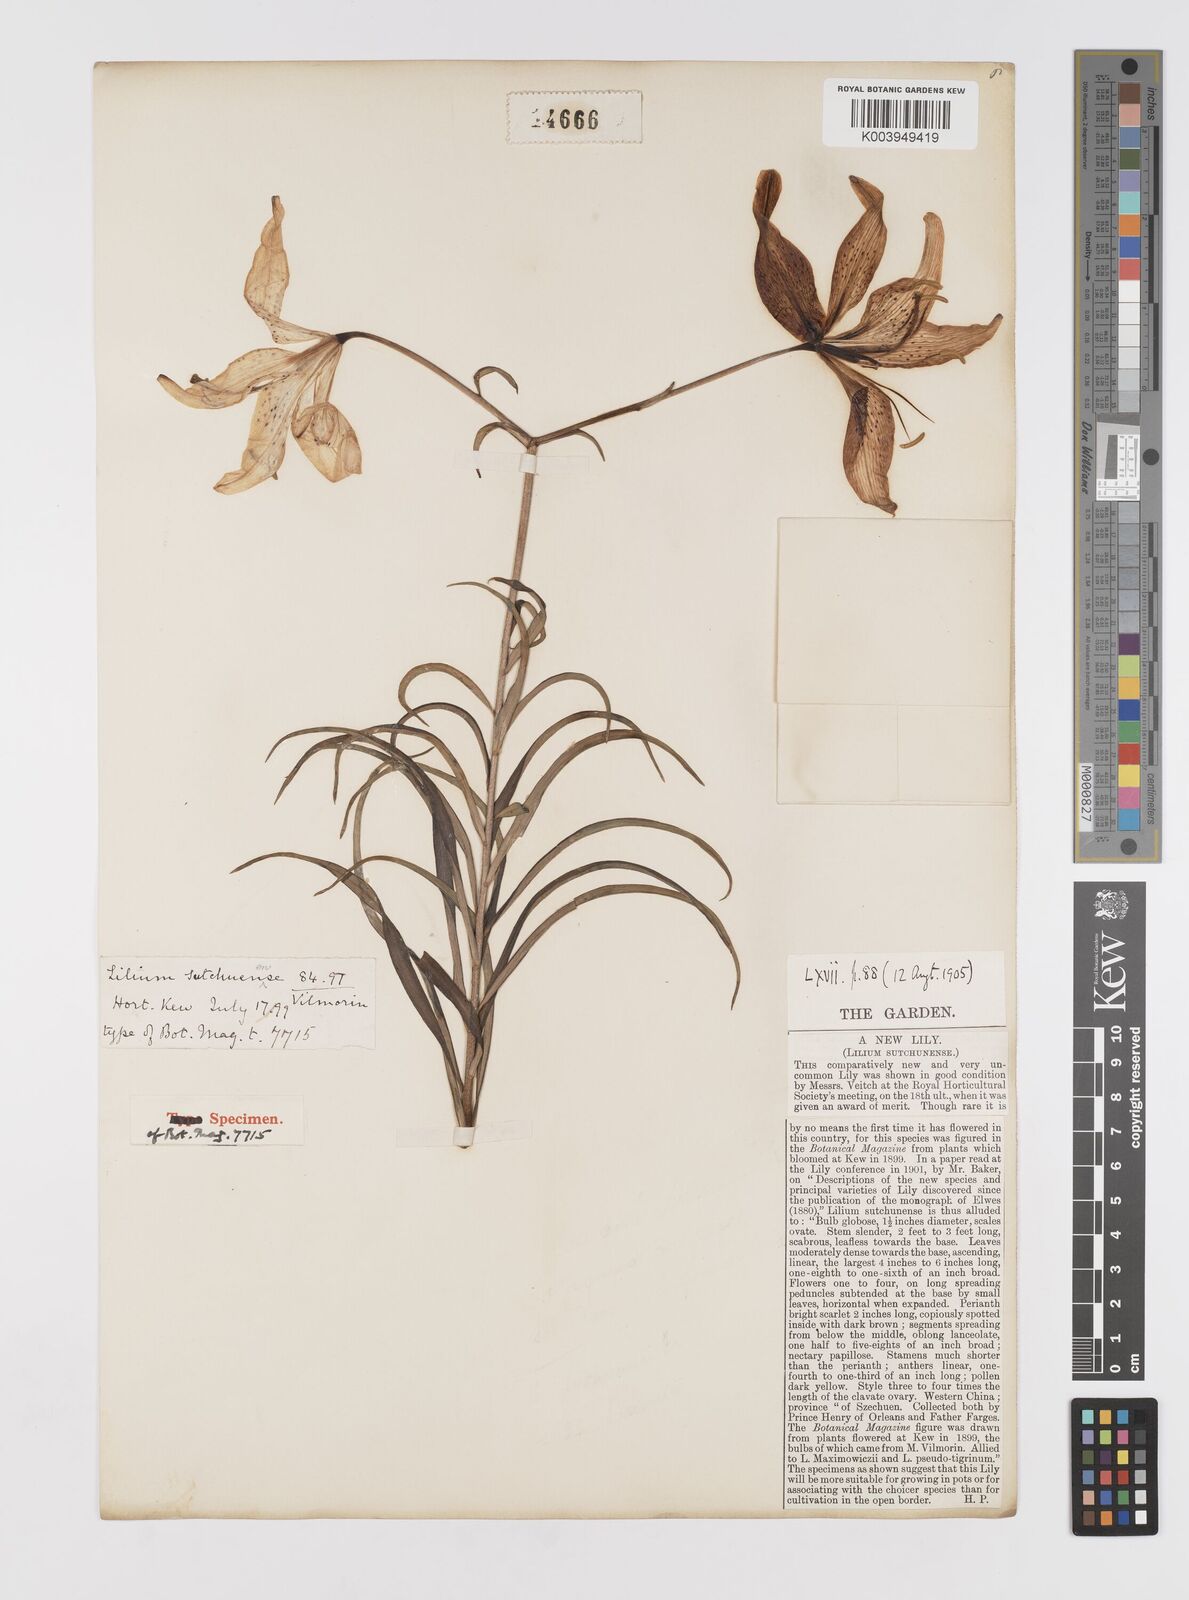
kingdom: Plantae
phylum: Tracheophyta
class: Liliopsida
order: Liliales
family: Liliaceae
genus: Lilium
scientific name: Lilium davidii
